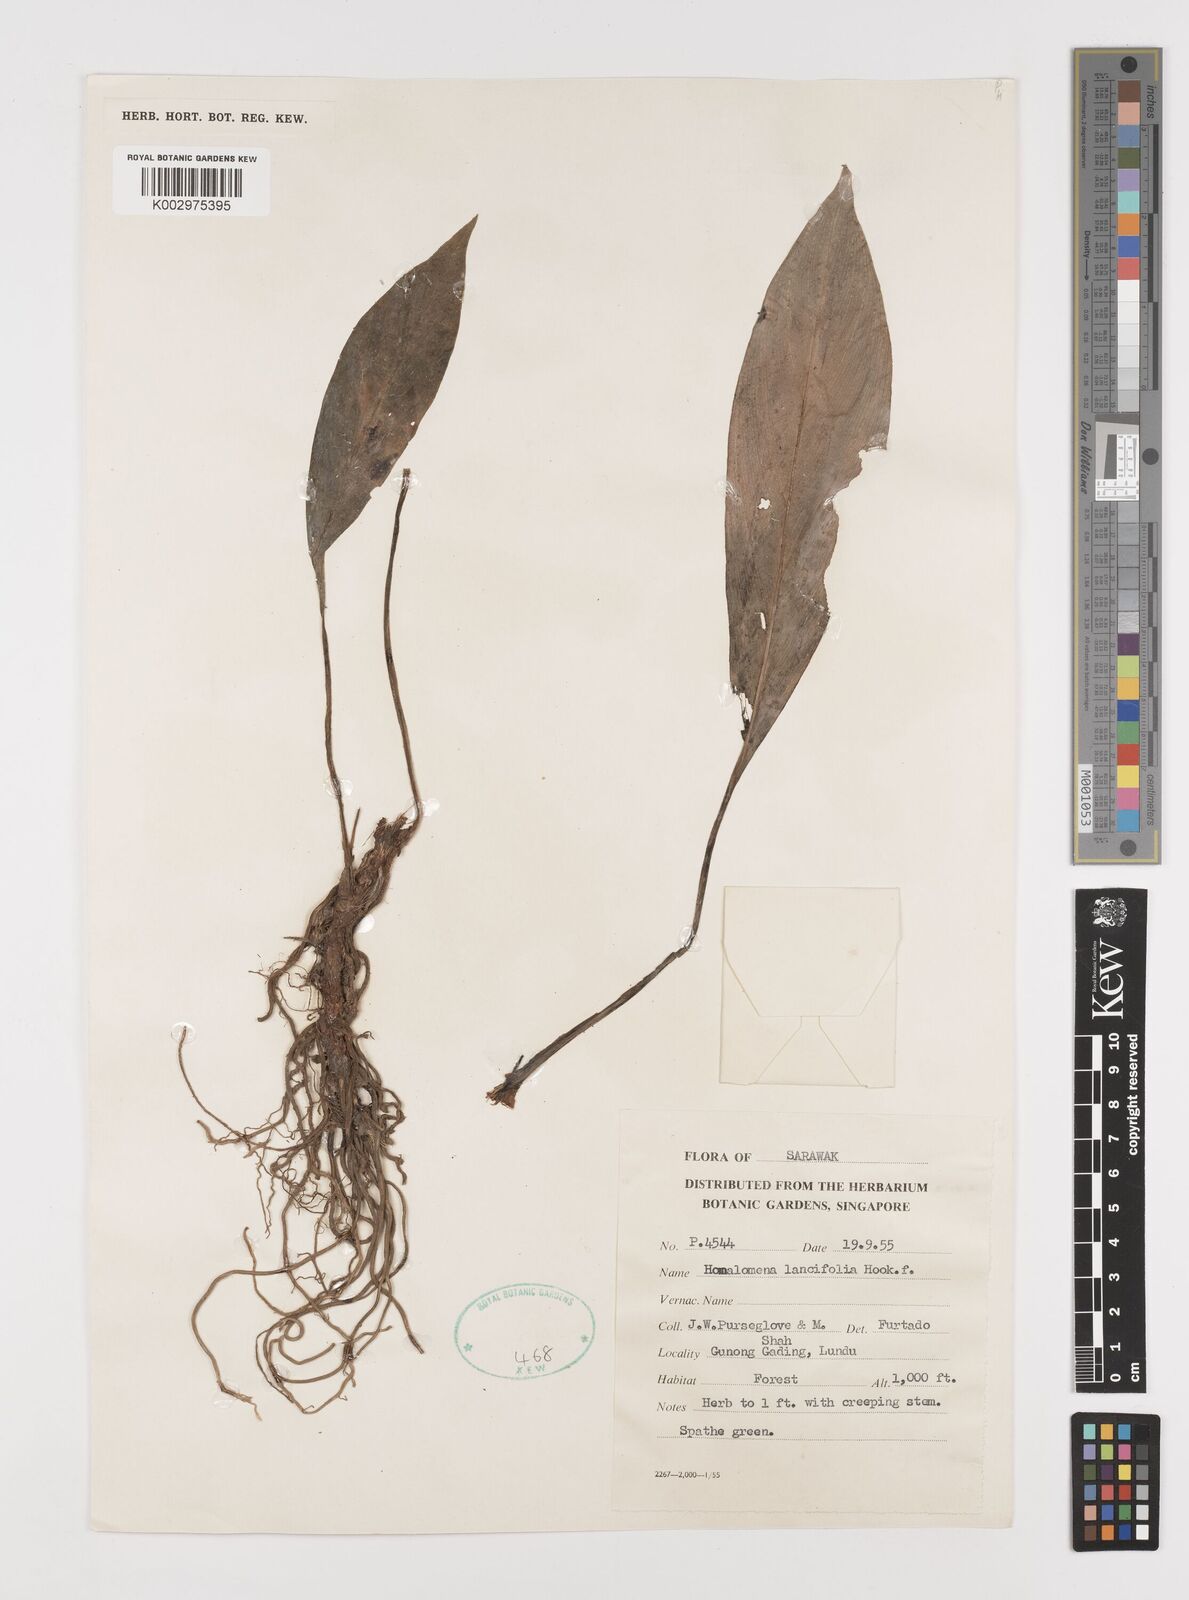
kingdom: Plantae
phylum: Tracheophyta
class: Liliopsida
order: Alismatales
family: Araceae
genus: Homalomena
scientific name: Homalomena lancifolia
